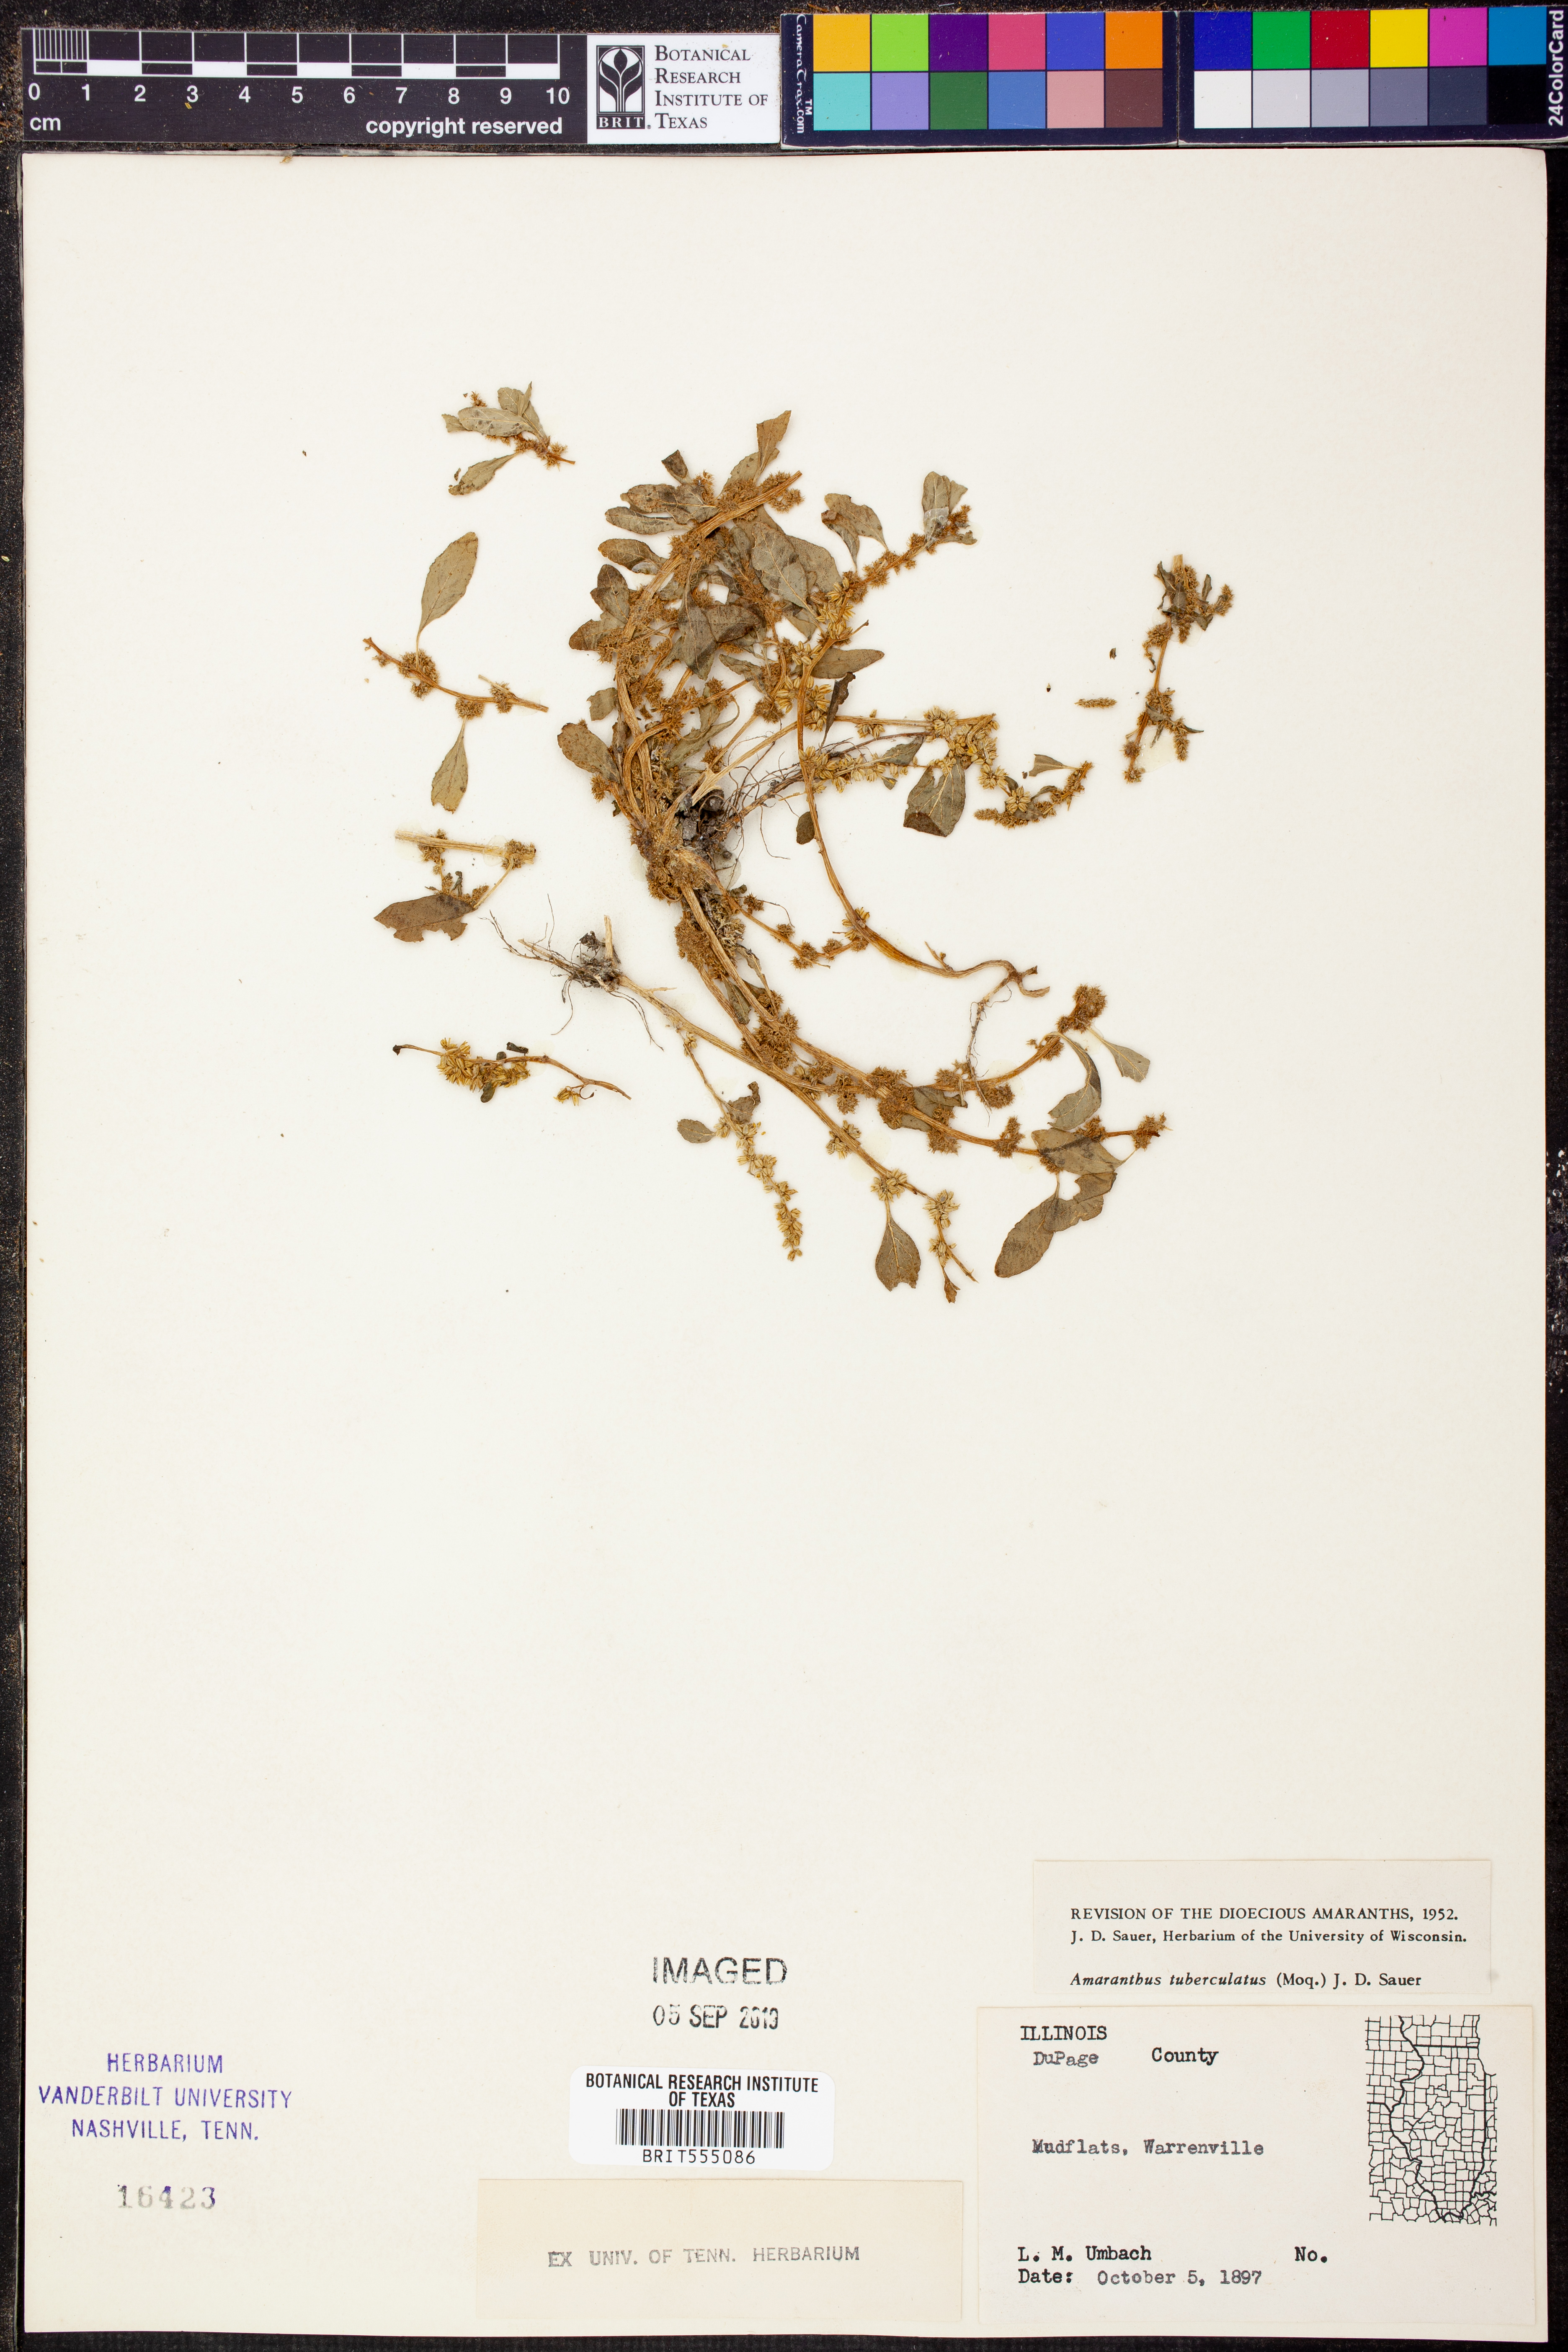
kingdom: Plantae
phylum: Tracheophyta
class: Magnoliopsida
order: Caryophyllales
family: Amaranthaceae
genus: Amaranthus
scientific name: Amaranthus tuberculatus
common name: Rough-fruit amaranth
